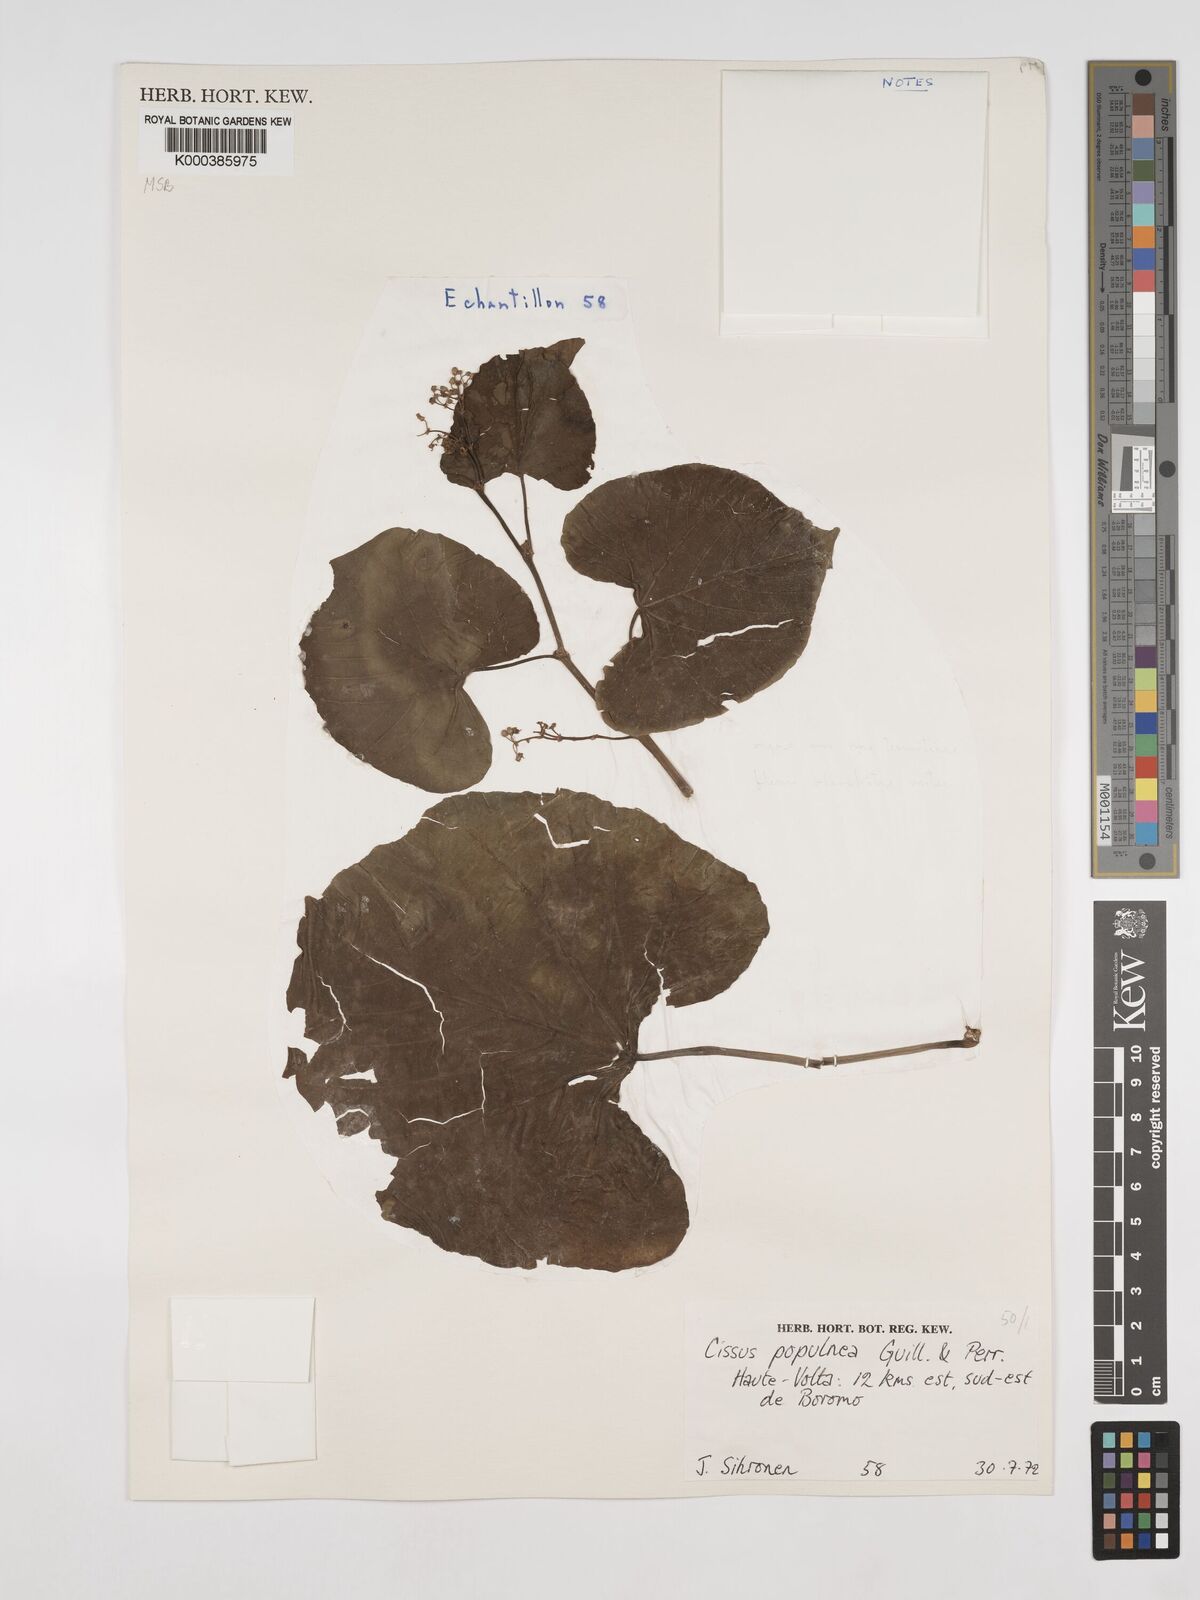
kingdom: Plantae
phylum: Tracheophyta
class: Magnoliopsida
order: Vitales
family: Vitaceae
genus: Cissus
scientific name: Cissus populnea
